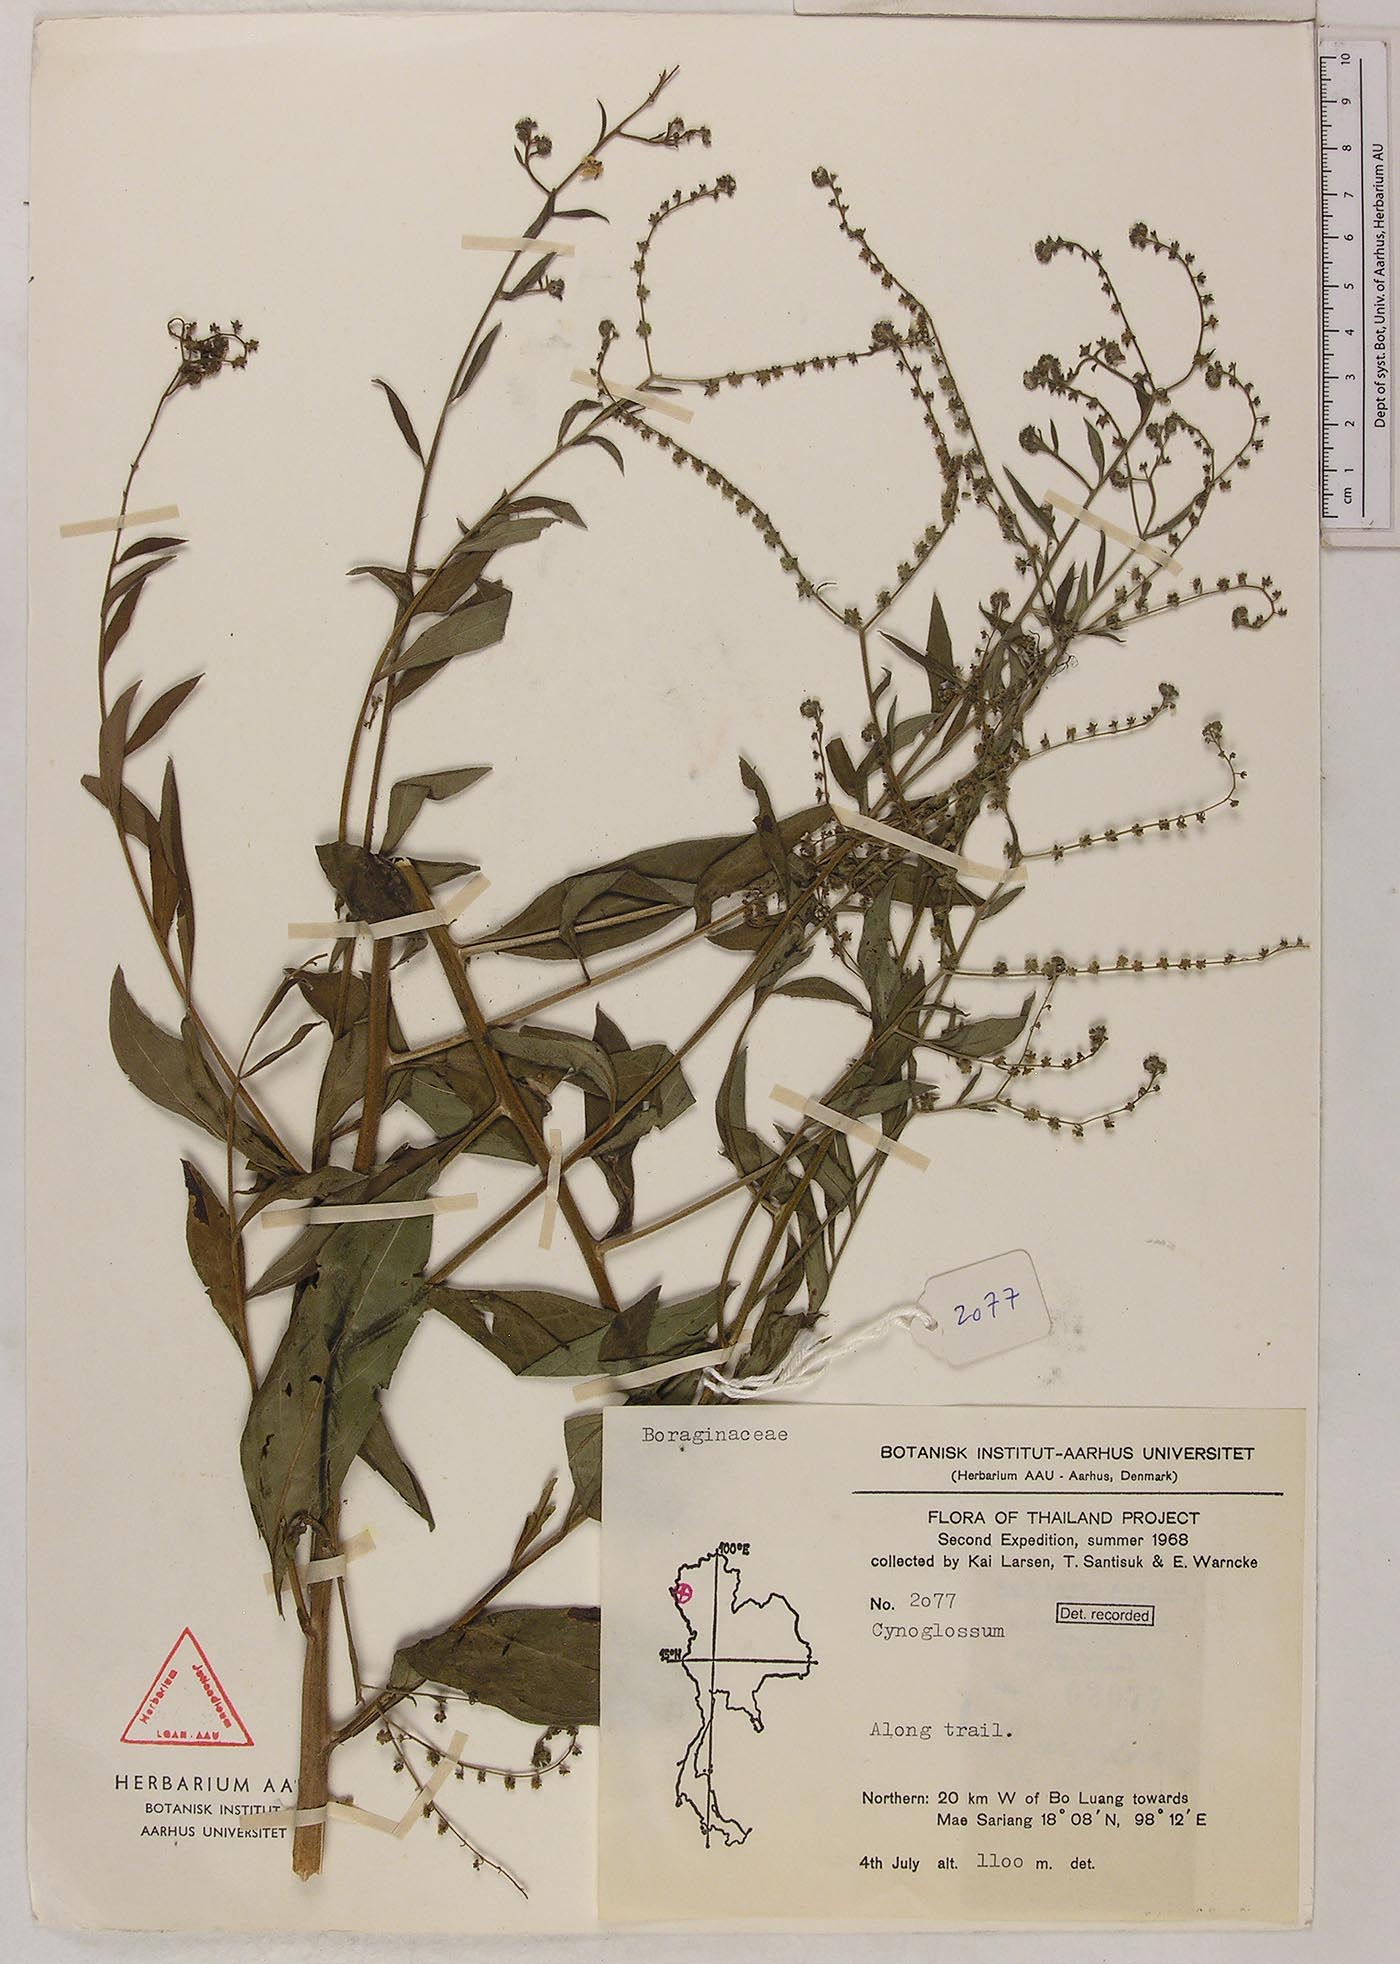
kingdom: Plantae
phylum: Tracheophyta
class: Magnoliopsida
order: Boraginales
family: Boraginaceae
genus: Paracynoglossum
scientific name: Paracynoglossum lanceolatum
